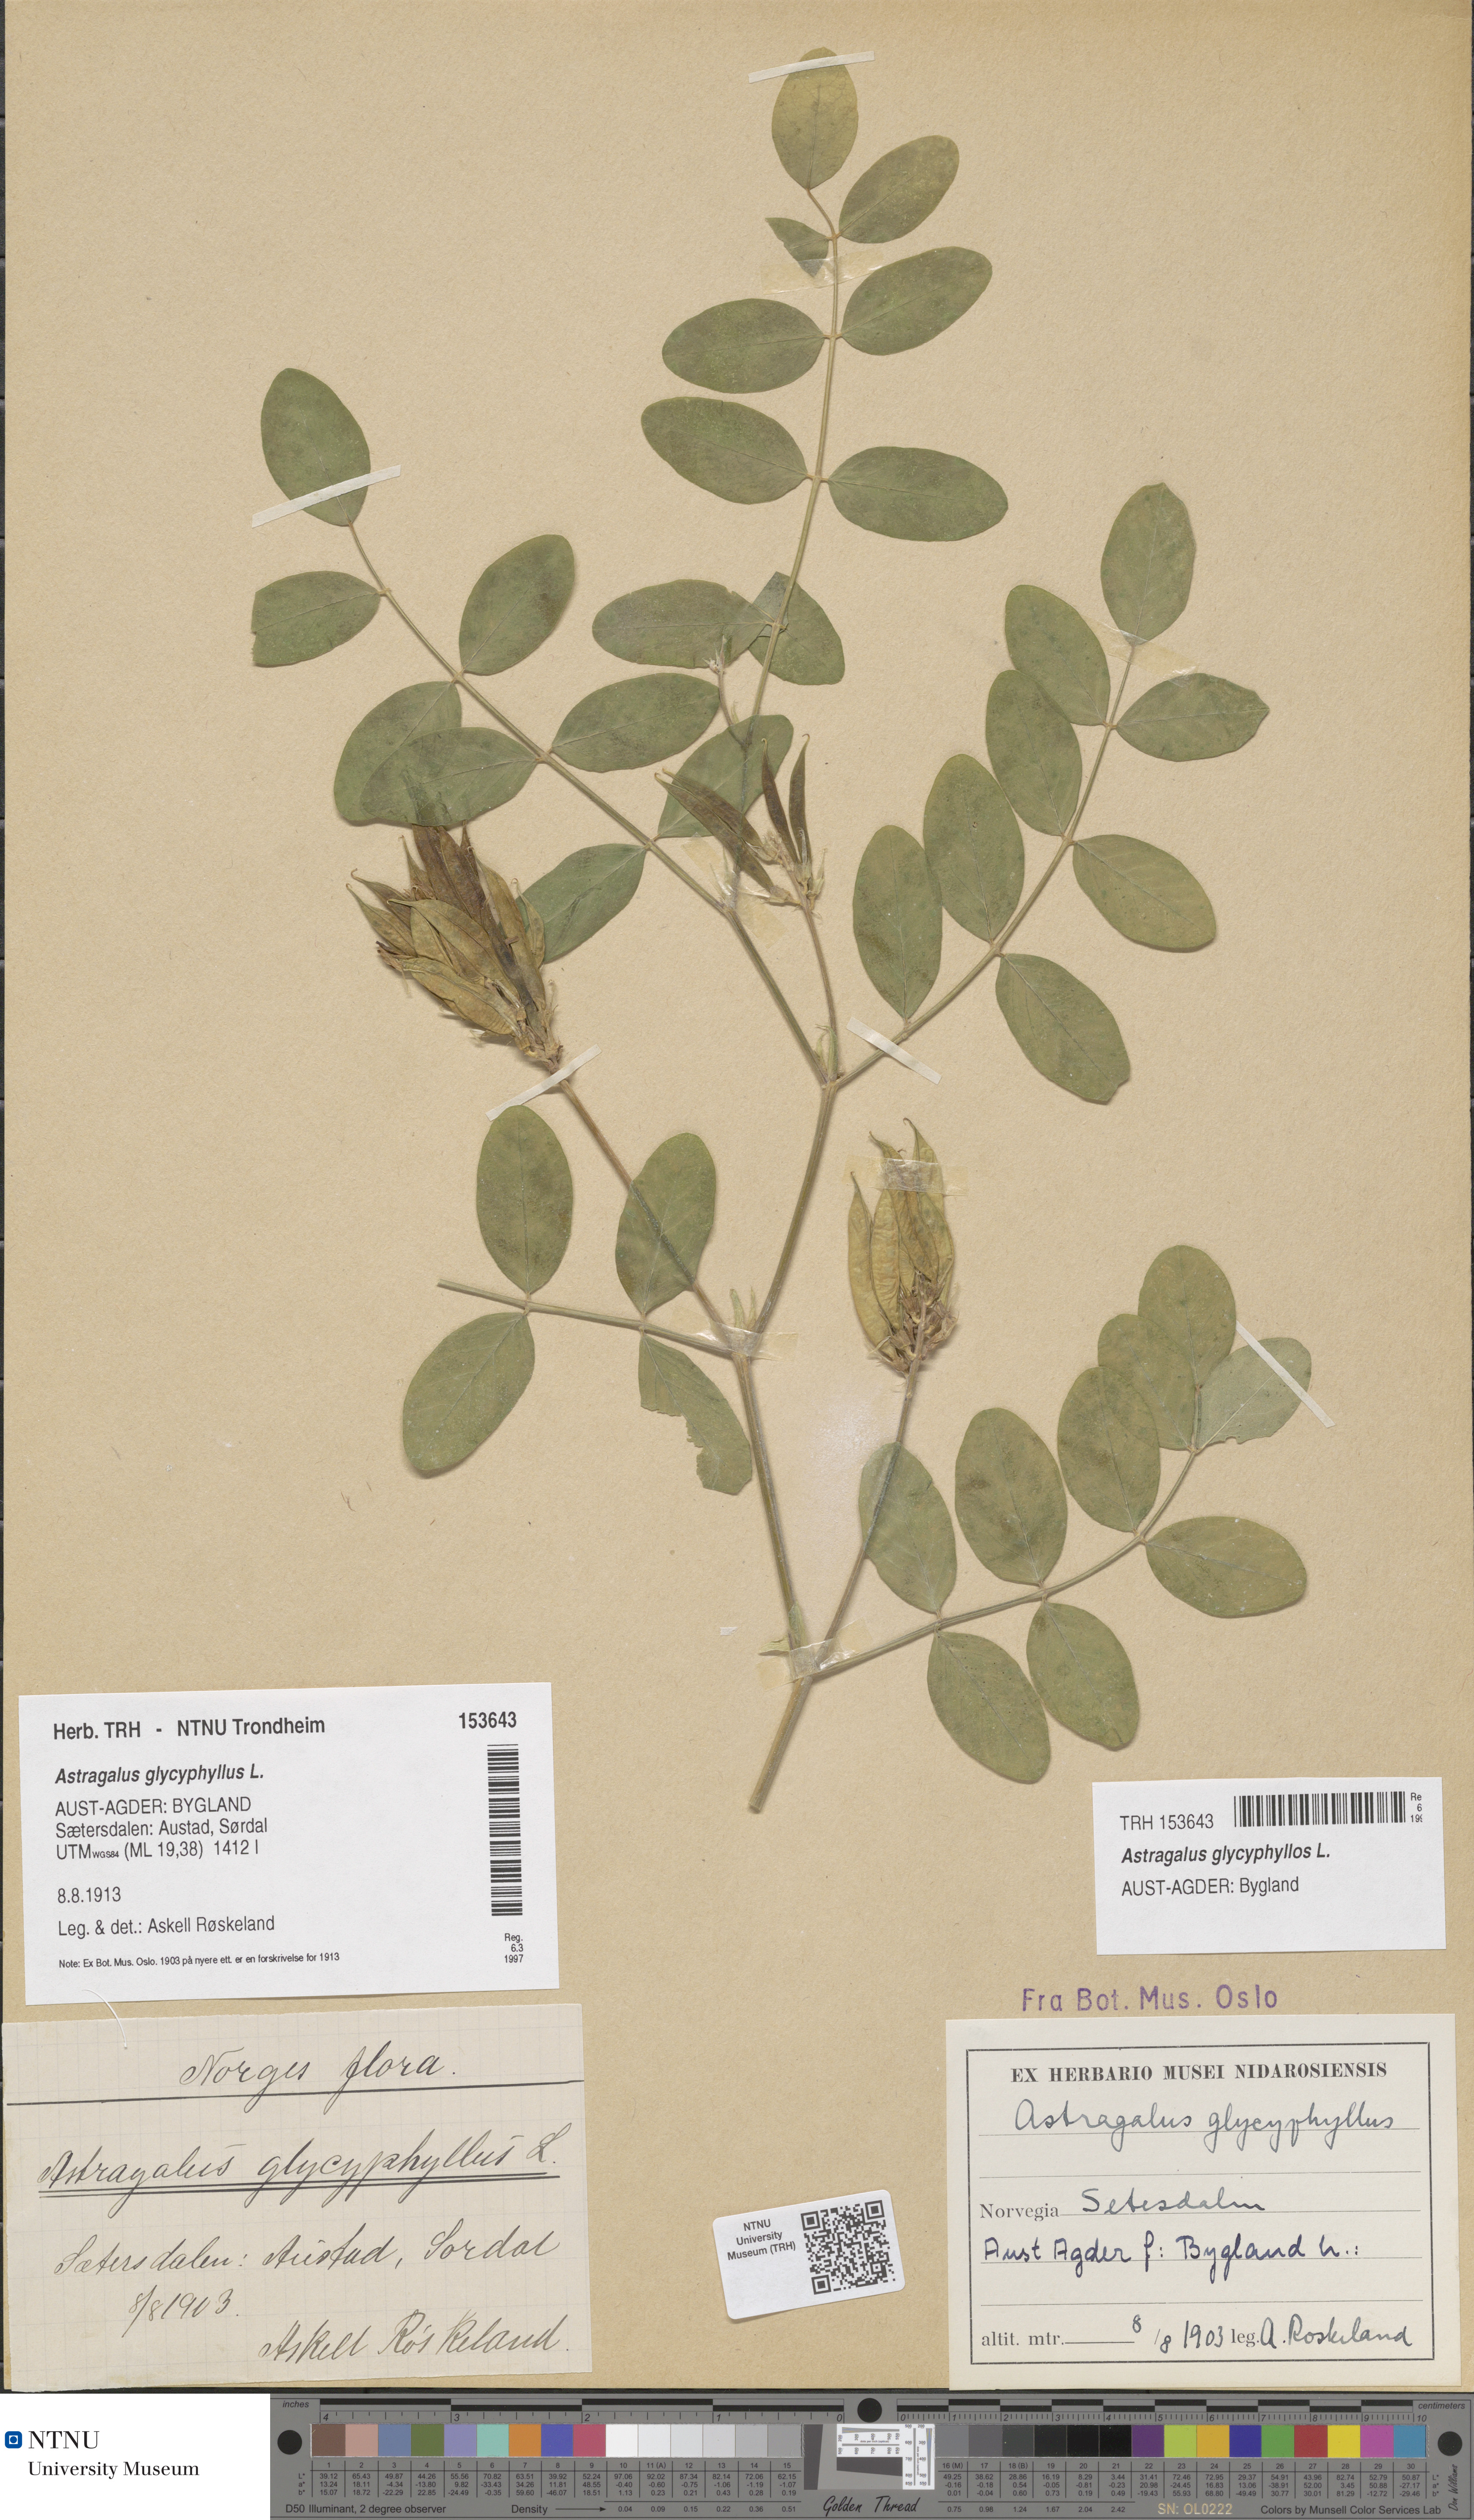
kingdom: Plantae
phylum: Tracheophyta
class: Magnoliopsida
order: Fabales
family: Fabaceae
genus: Astragalus
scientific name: Astragalus glycyphyllos
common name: Wild liquorice
